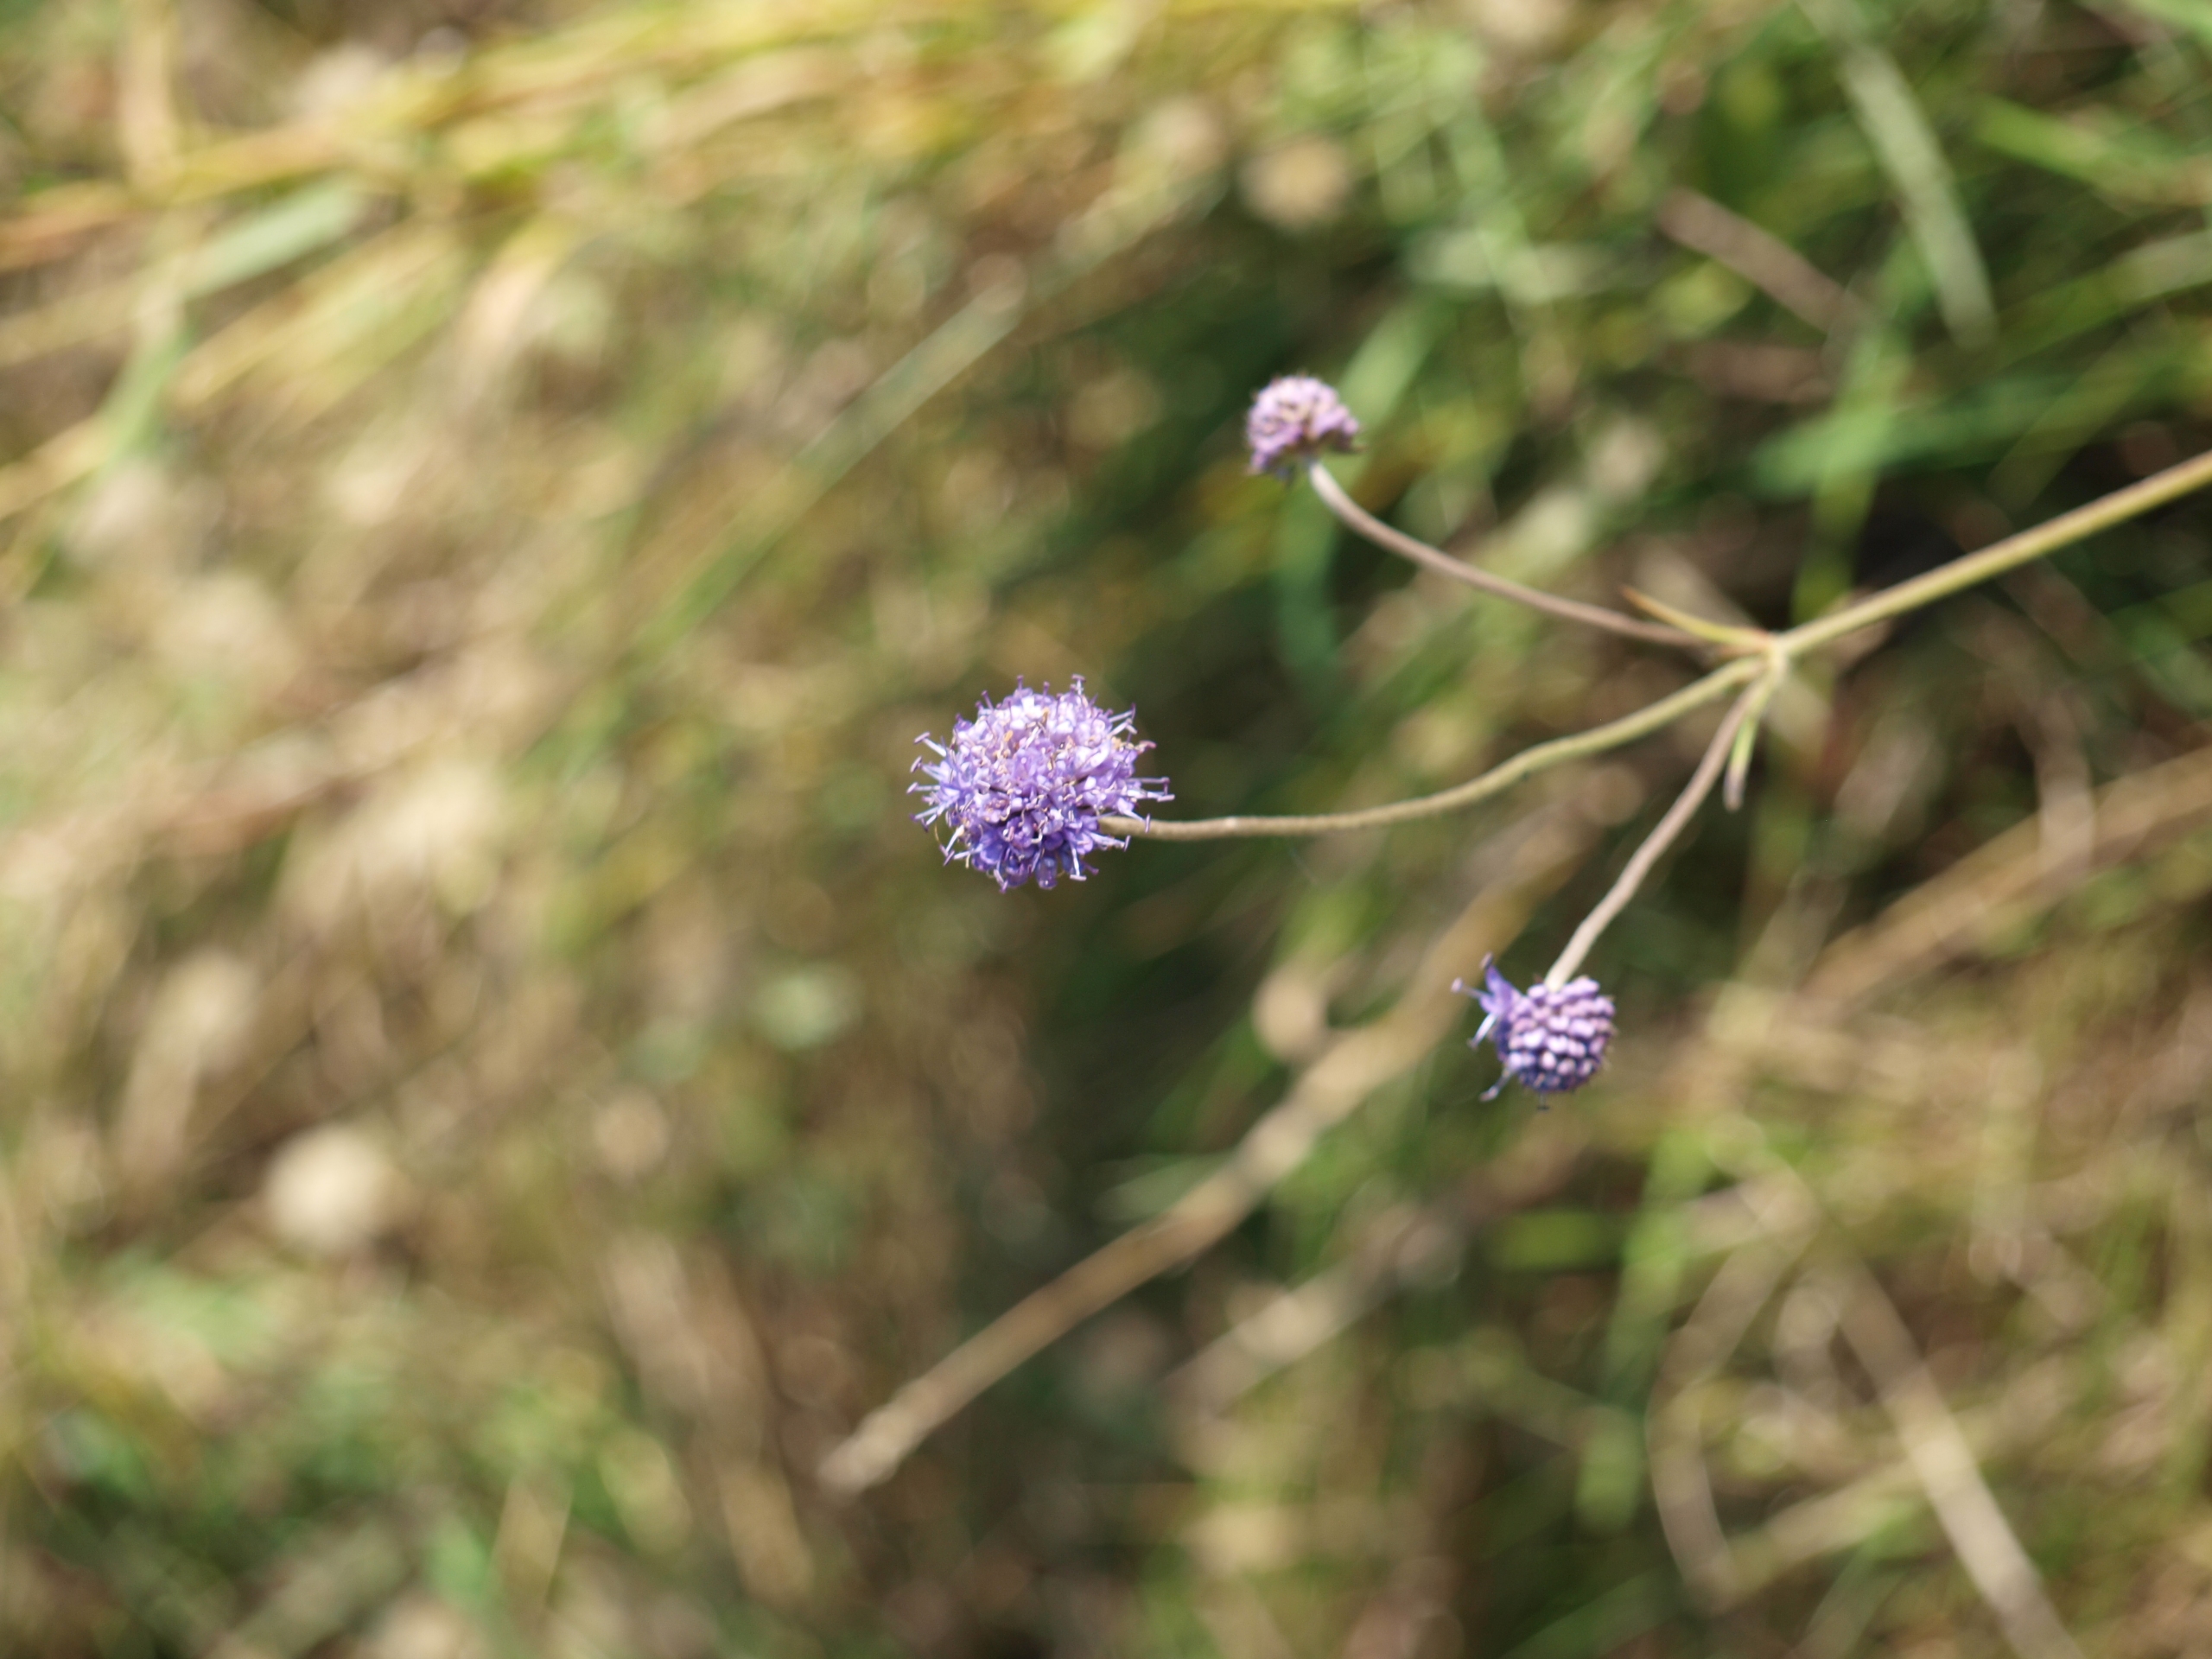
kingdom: Plantae
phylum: Tracheophyta
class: Magnoliopsida
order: Dipsacales
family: Caprifoliaceae
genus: Succisa
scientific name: Succisa pratensis
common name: Djævelsbid
